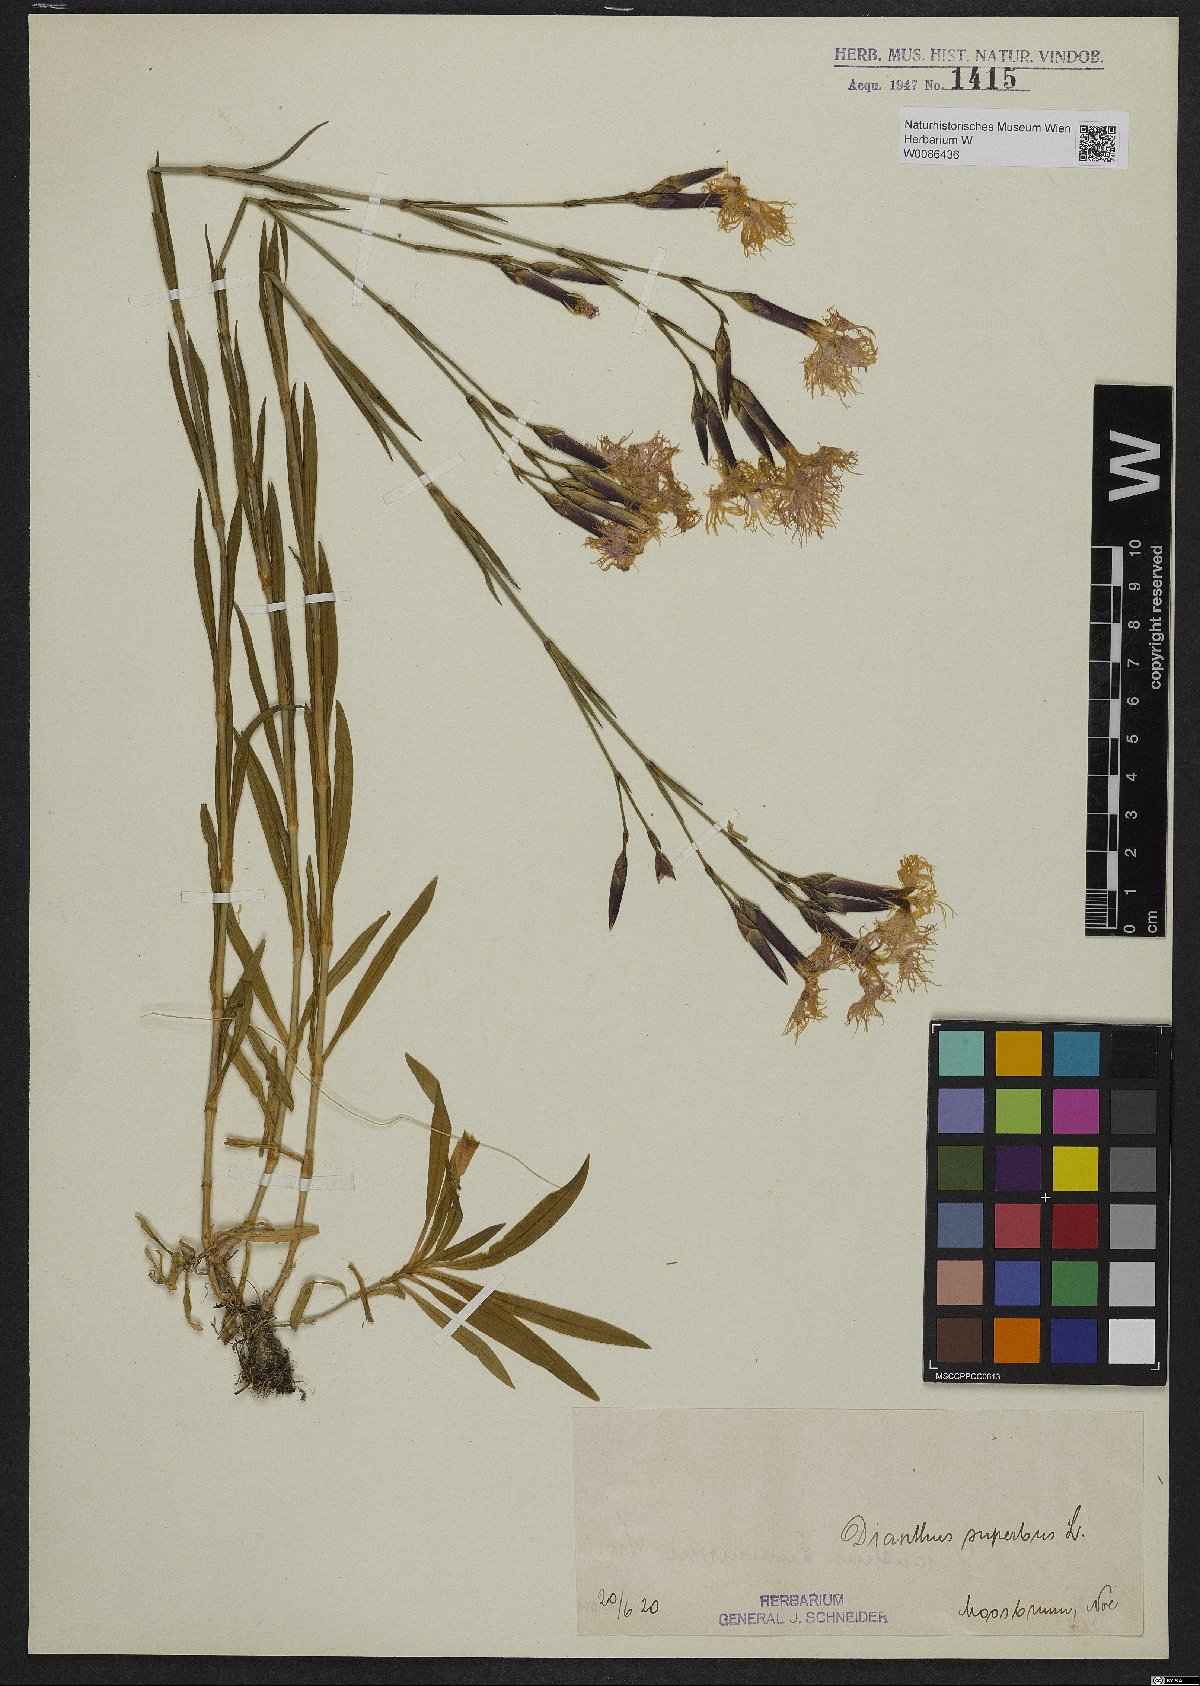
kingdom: Plantae
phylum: Tracheophyta
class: Magnoliopsida
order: Caryophyllales
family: Caryophyllaceae
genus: Dianthus
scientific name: Dianthus superbus
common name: Fringed pink
